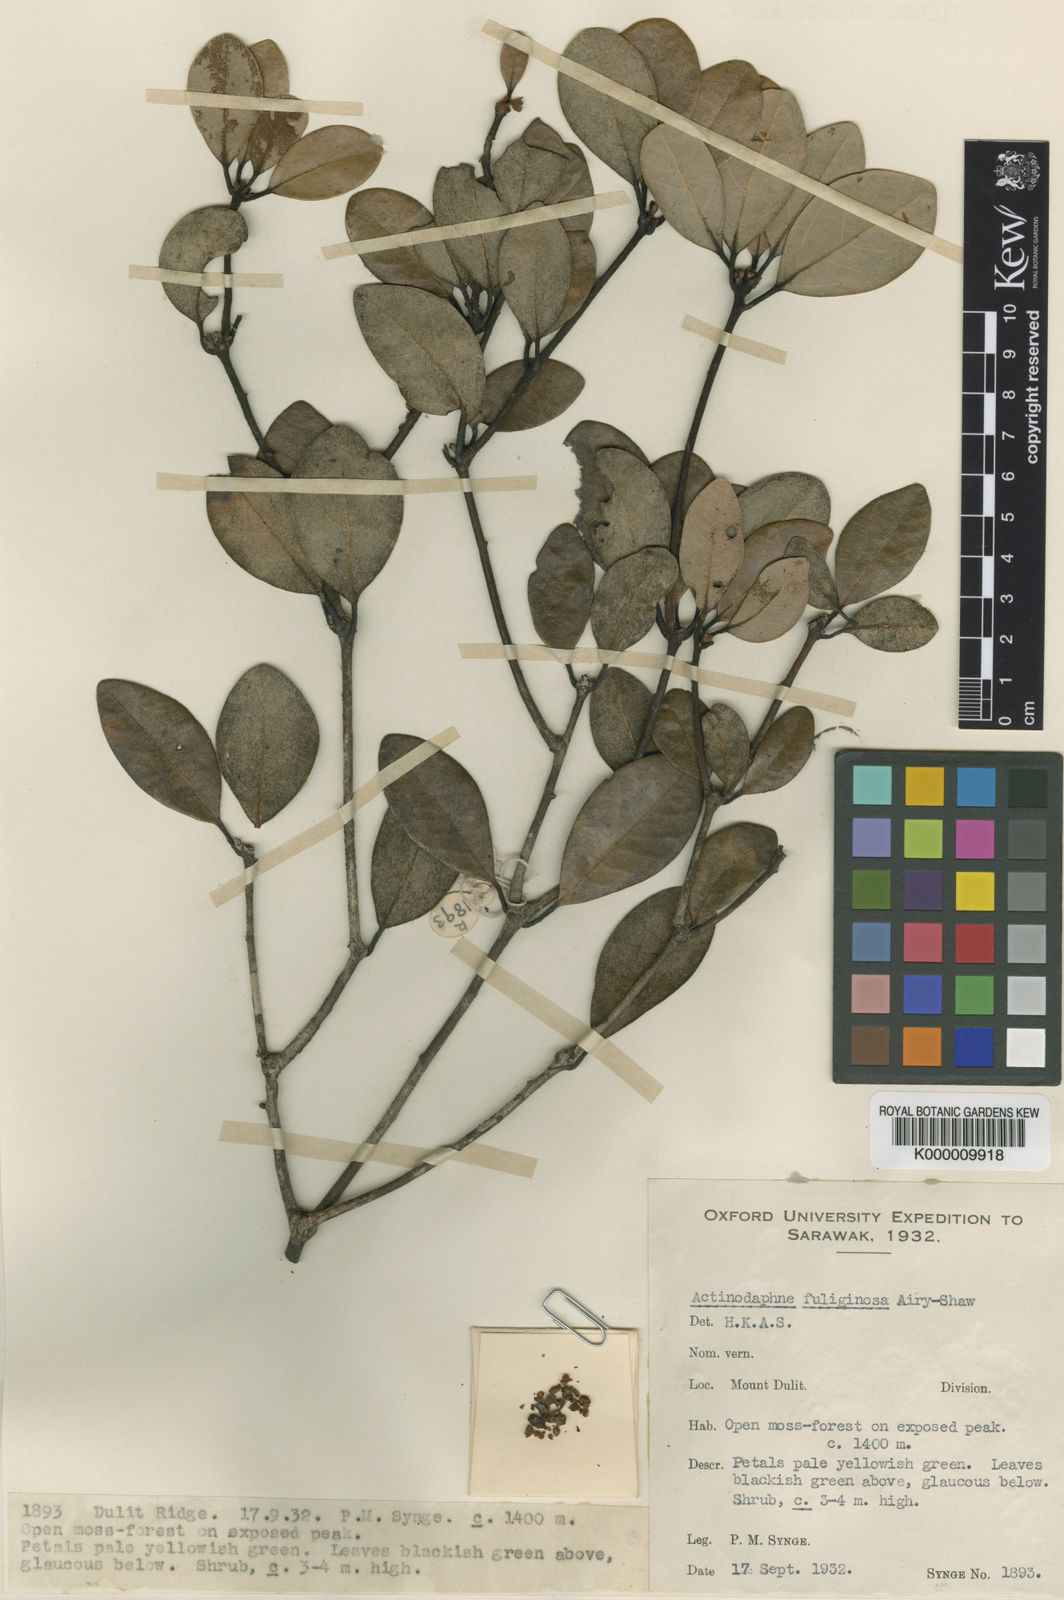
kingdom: Plantae
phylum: Tracheophyta
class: Magnoliopsida
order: Laurales
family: Lauraceae
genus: Actinodaphne
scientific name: Actinodaphne fuliginosa
